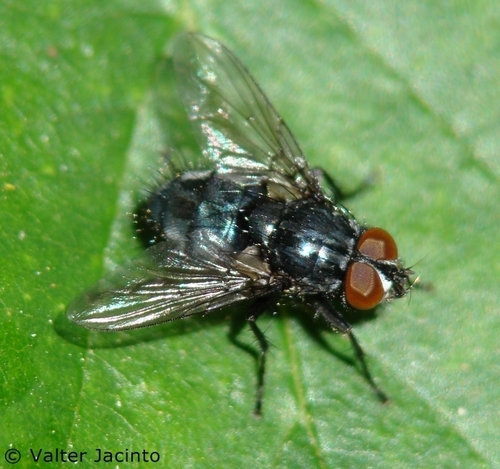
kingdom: Animalia
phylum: Arthropoda
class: Insecta
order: Diptera
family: Calliphoridae
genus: Melinda
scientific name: Melinda cognata
